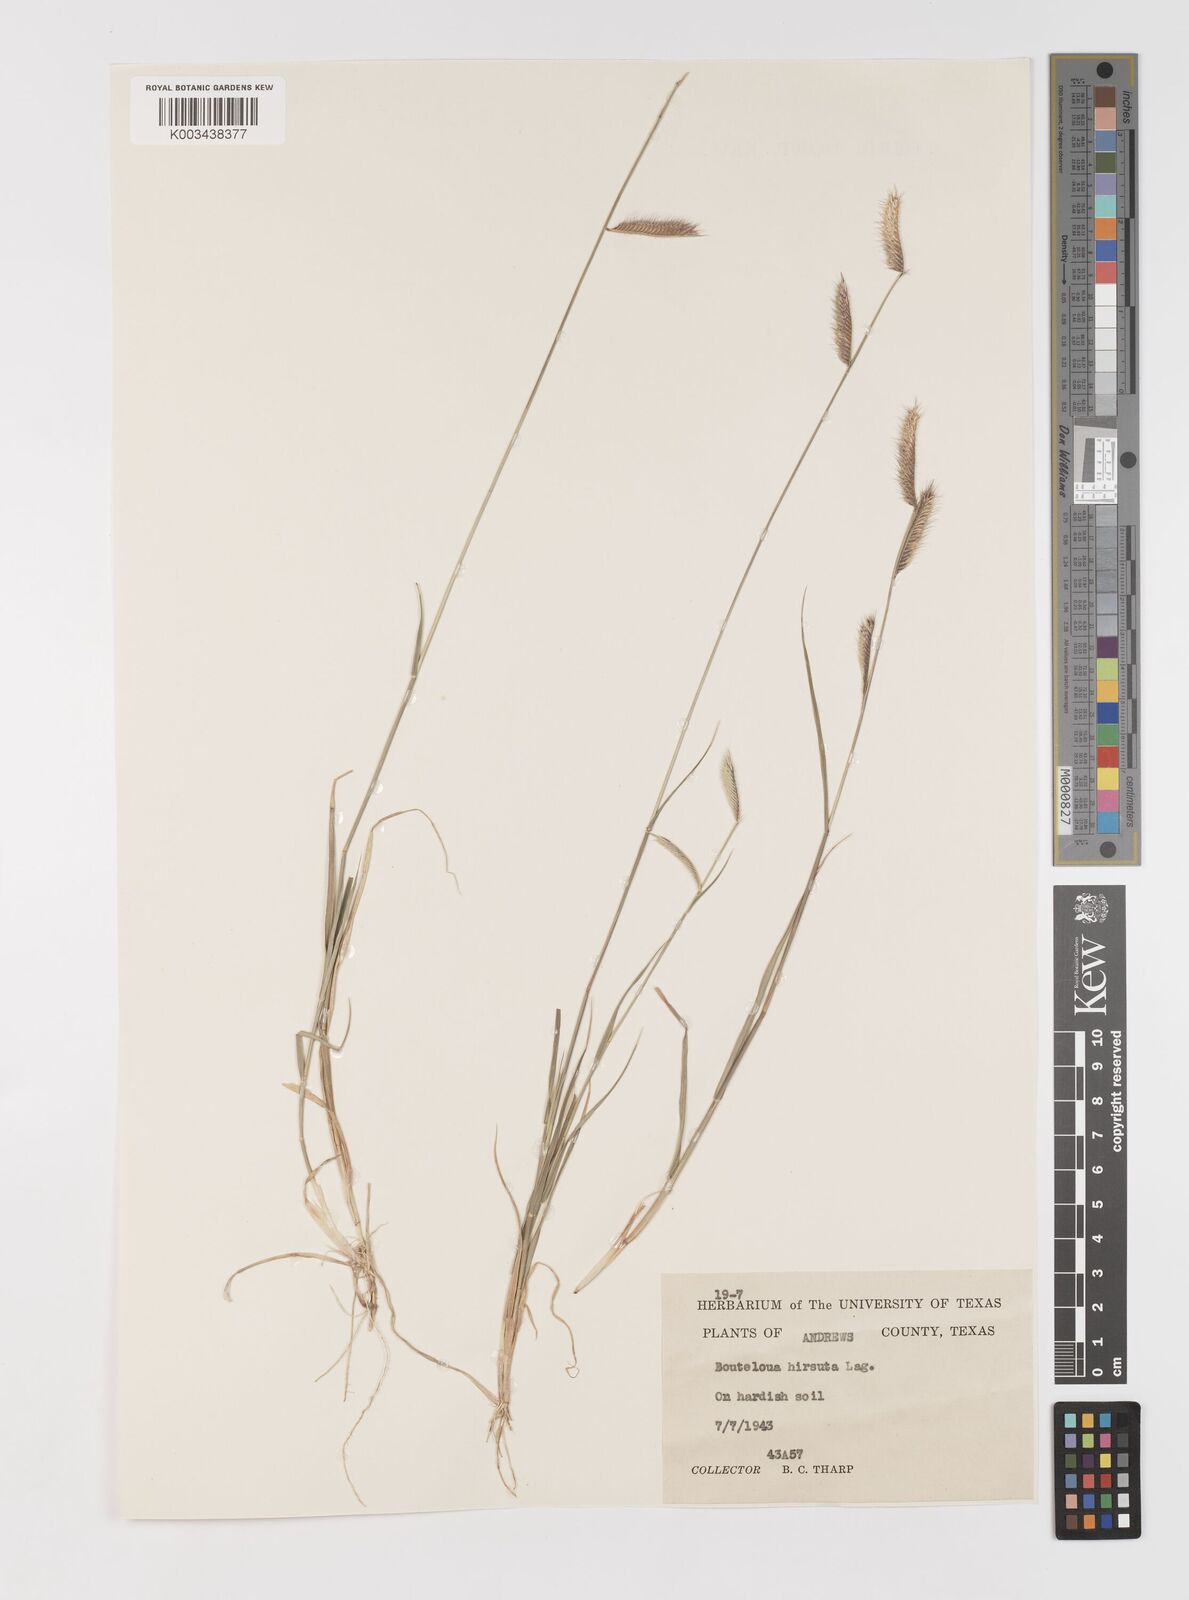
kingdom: Plantae
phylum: Tracheophyta
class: Liliopsida
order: Poales
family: Poaceae
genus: Bouteloua
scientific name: Bouteloua hirsuta
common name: Hairy grama
